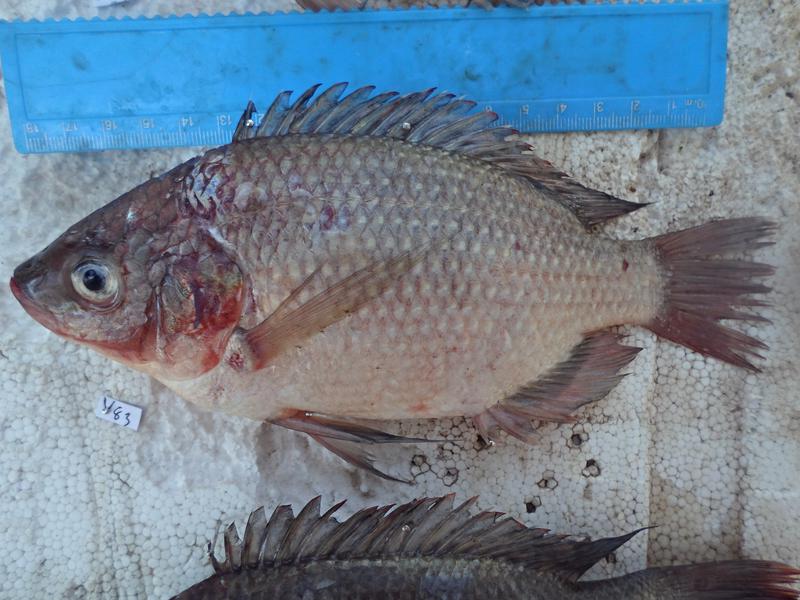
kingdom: Animalia
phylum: Chordata
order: Perciformes
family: Cichlidae
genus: Oreochromis
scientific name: Oreochromis esculentus
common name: Carp
